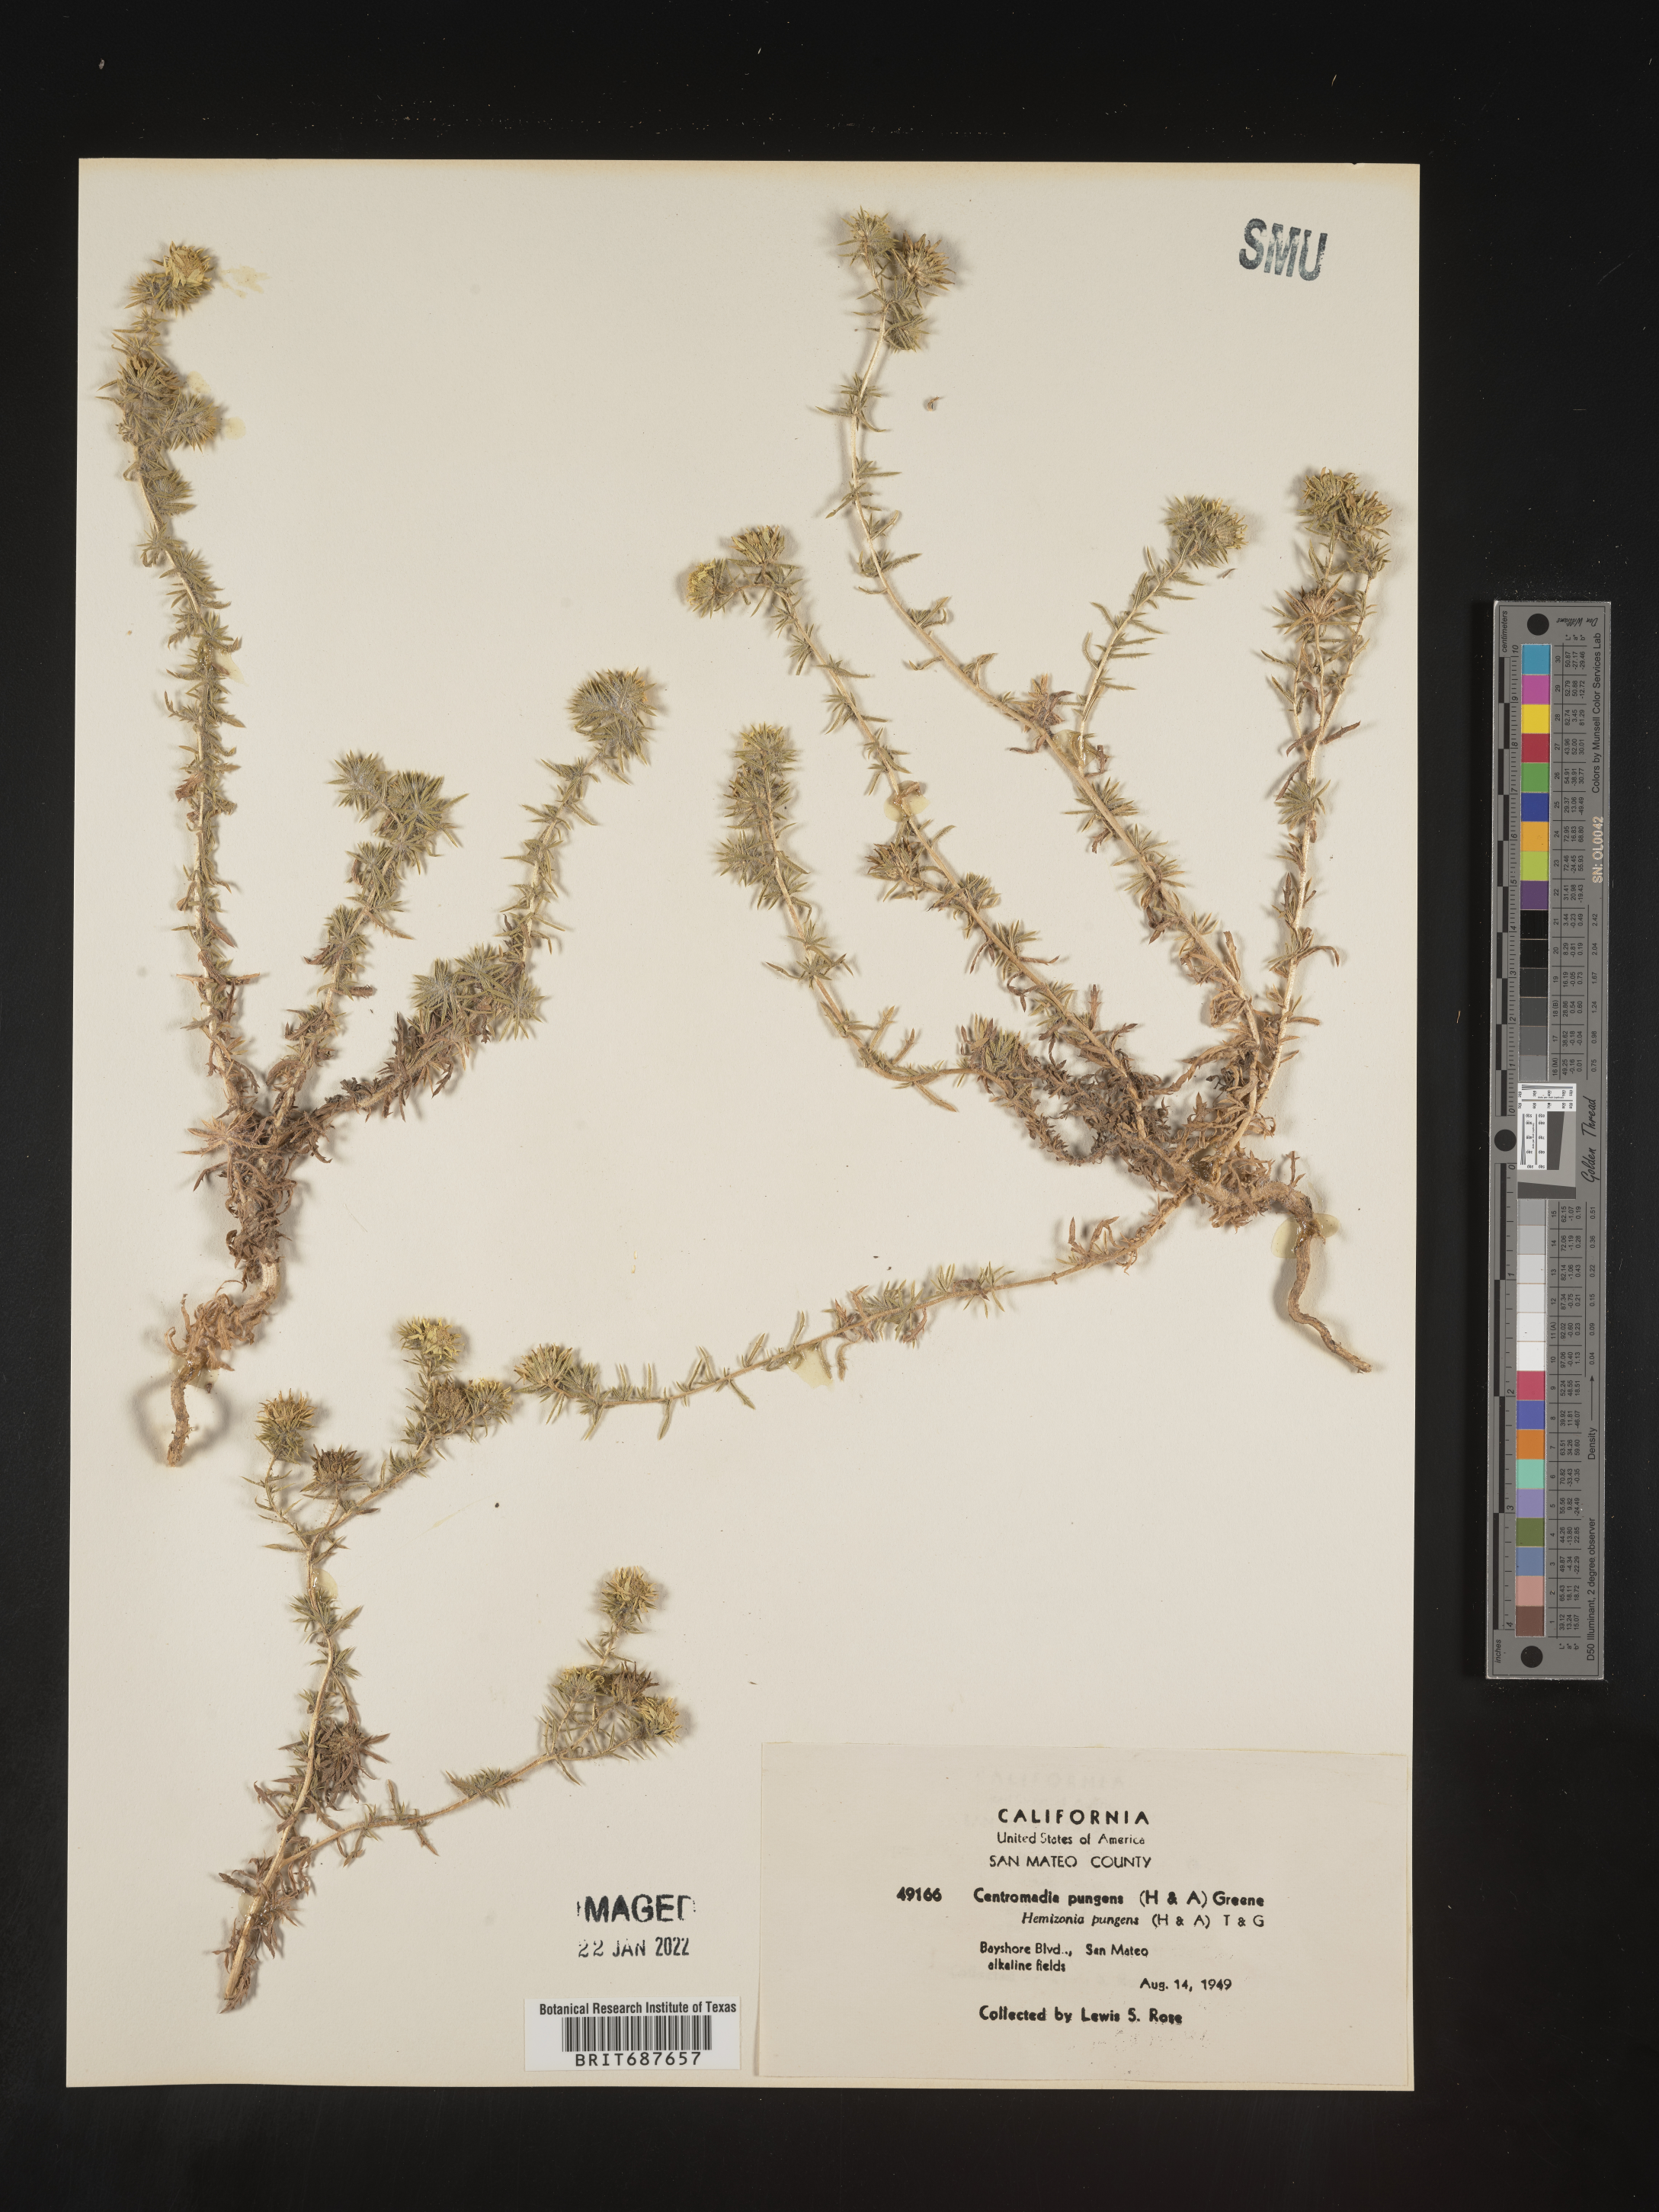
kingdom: Plantae
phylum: Tracheophyta
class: Magnoliopsida
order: Asterales
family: Asteraceae
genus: Centromadia
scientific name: Centromadia
